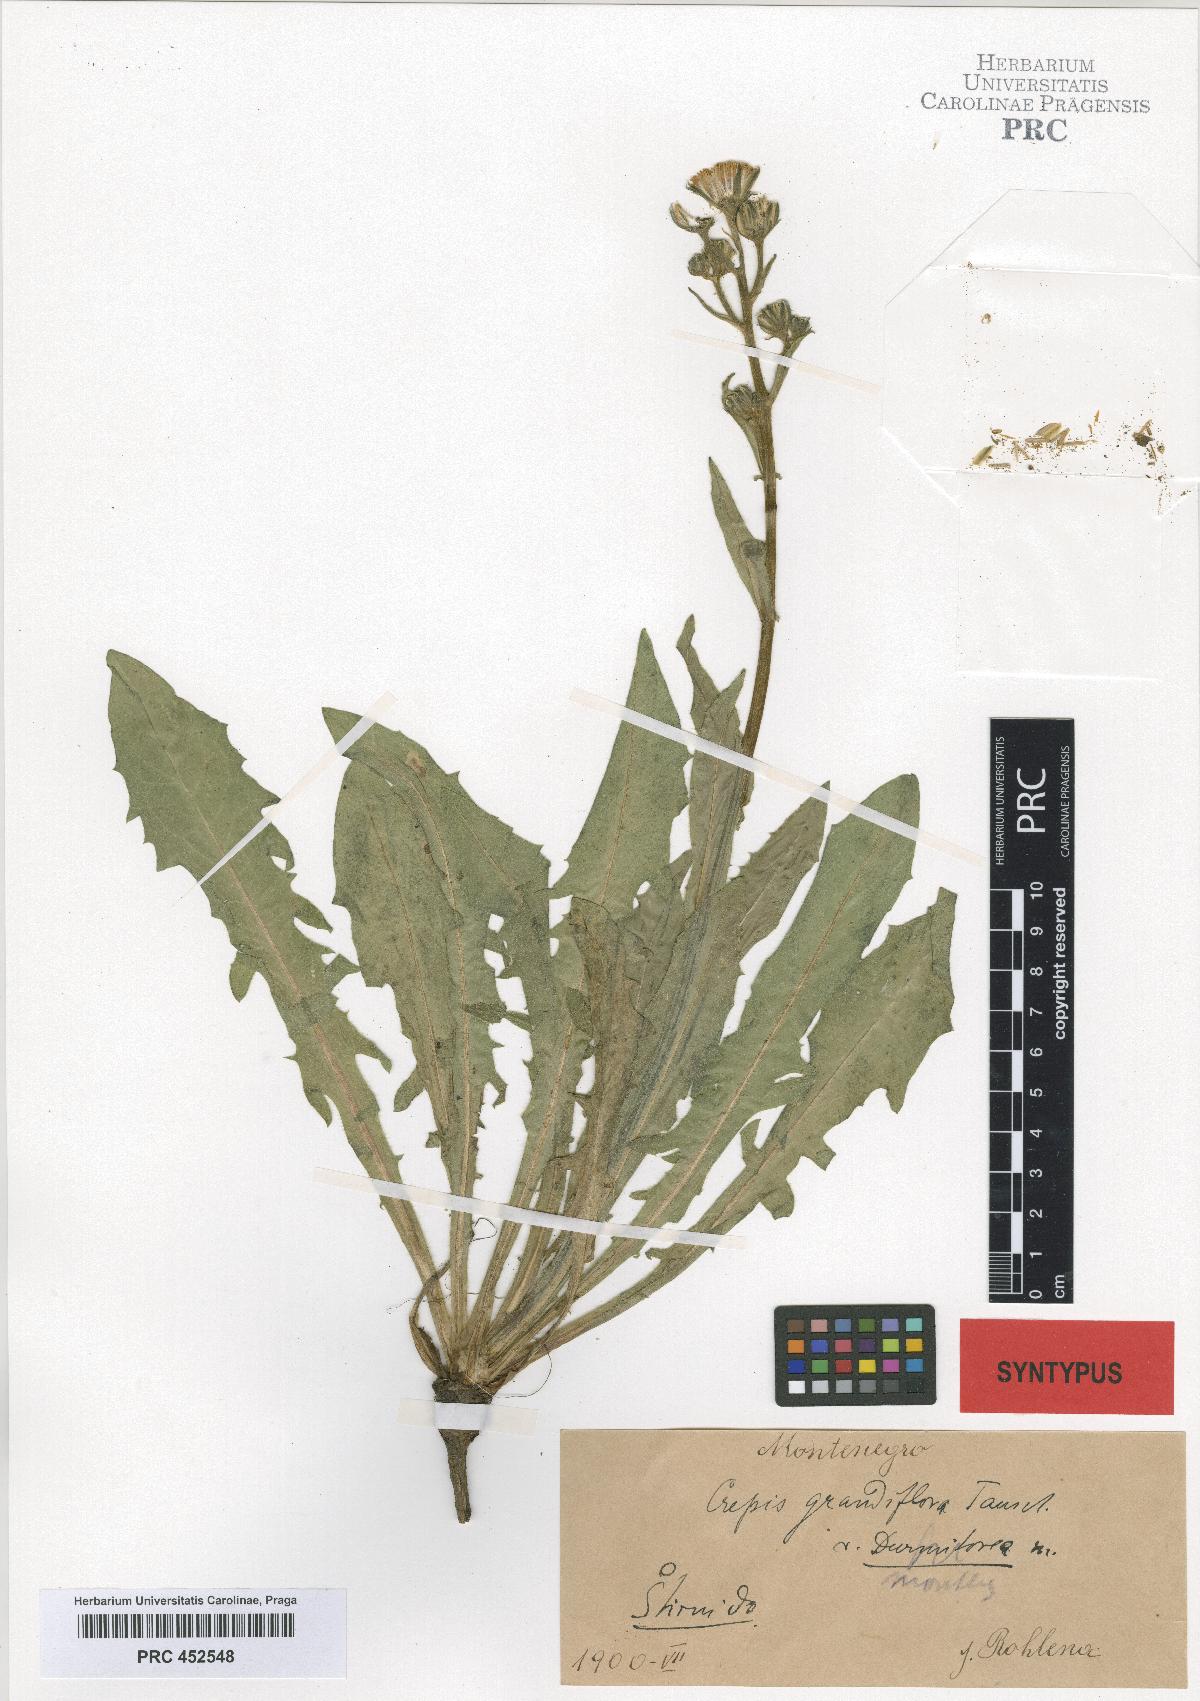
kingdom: Plantae
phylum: Tracheophyta
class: Magnoliopsida
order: Asterales
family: Asteraceae
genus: Crepis
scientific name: Crepis pyrenaica
